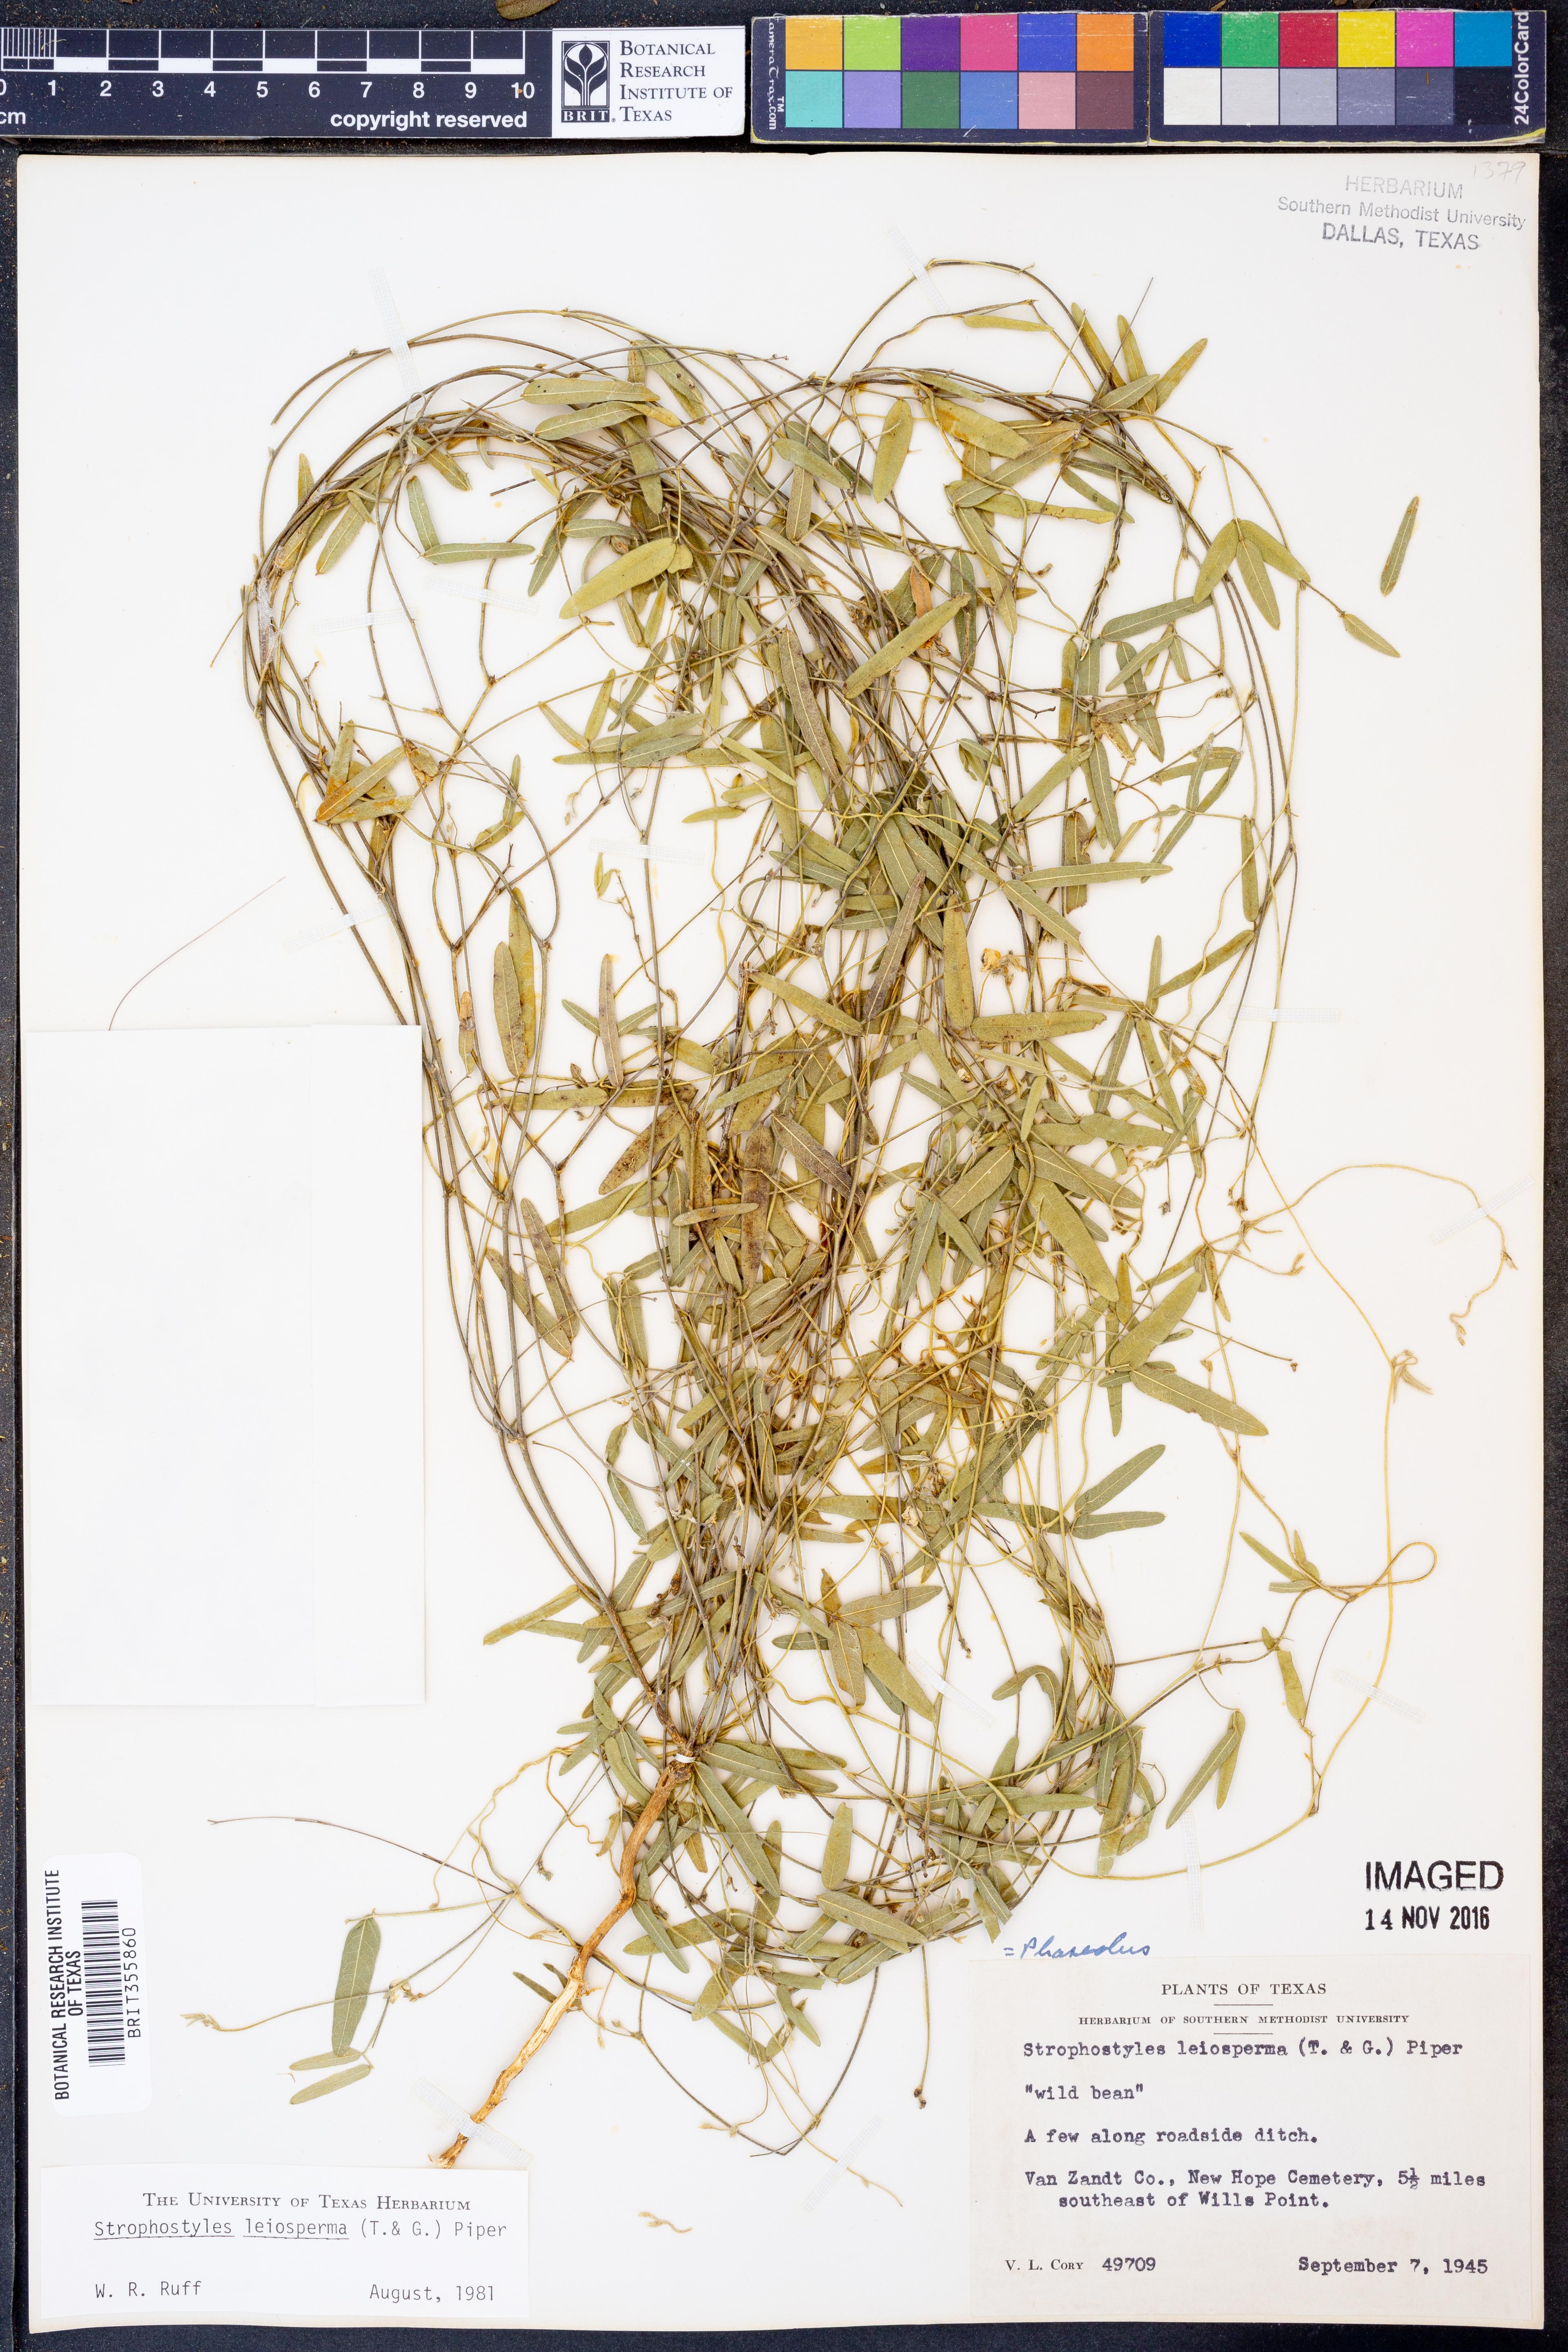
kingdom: Plantae
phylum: Tracheophyta
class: Magnoliopsida
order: Fabales
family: Fabaceae
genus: Strophostyles
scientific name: Strophostyles leiosperma
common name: Smooth-seed wild bean
